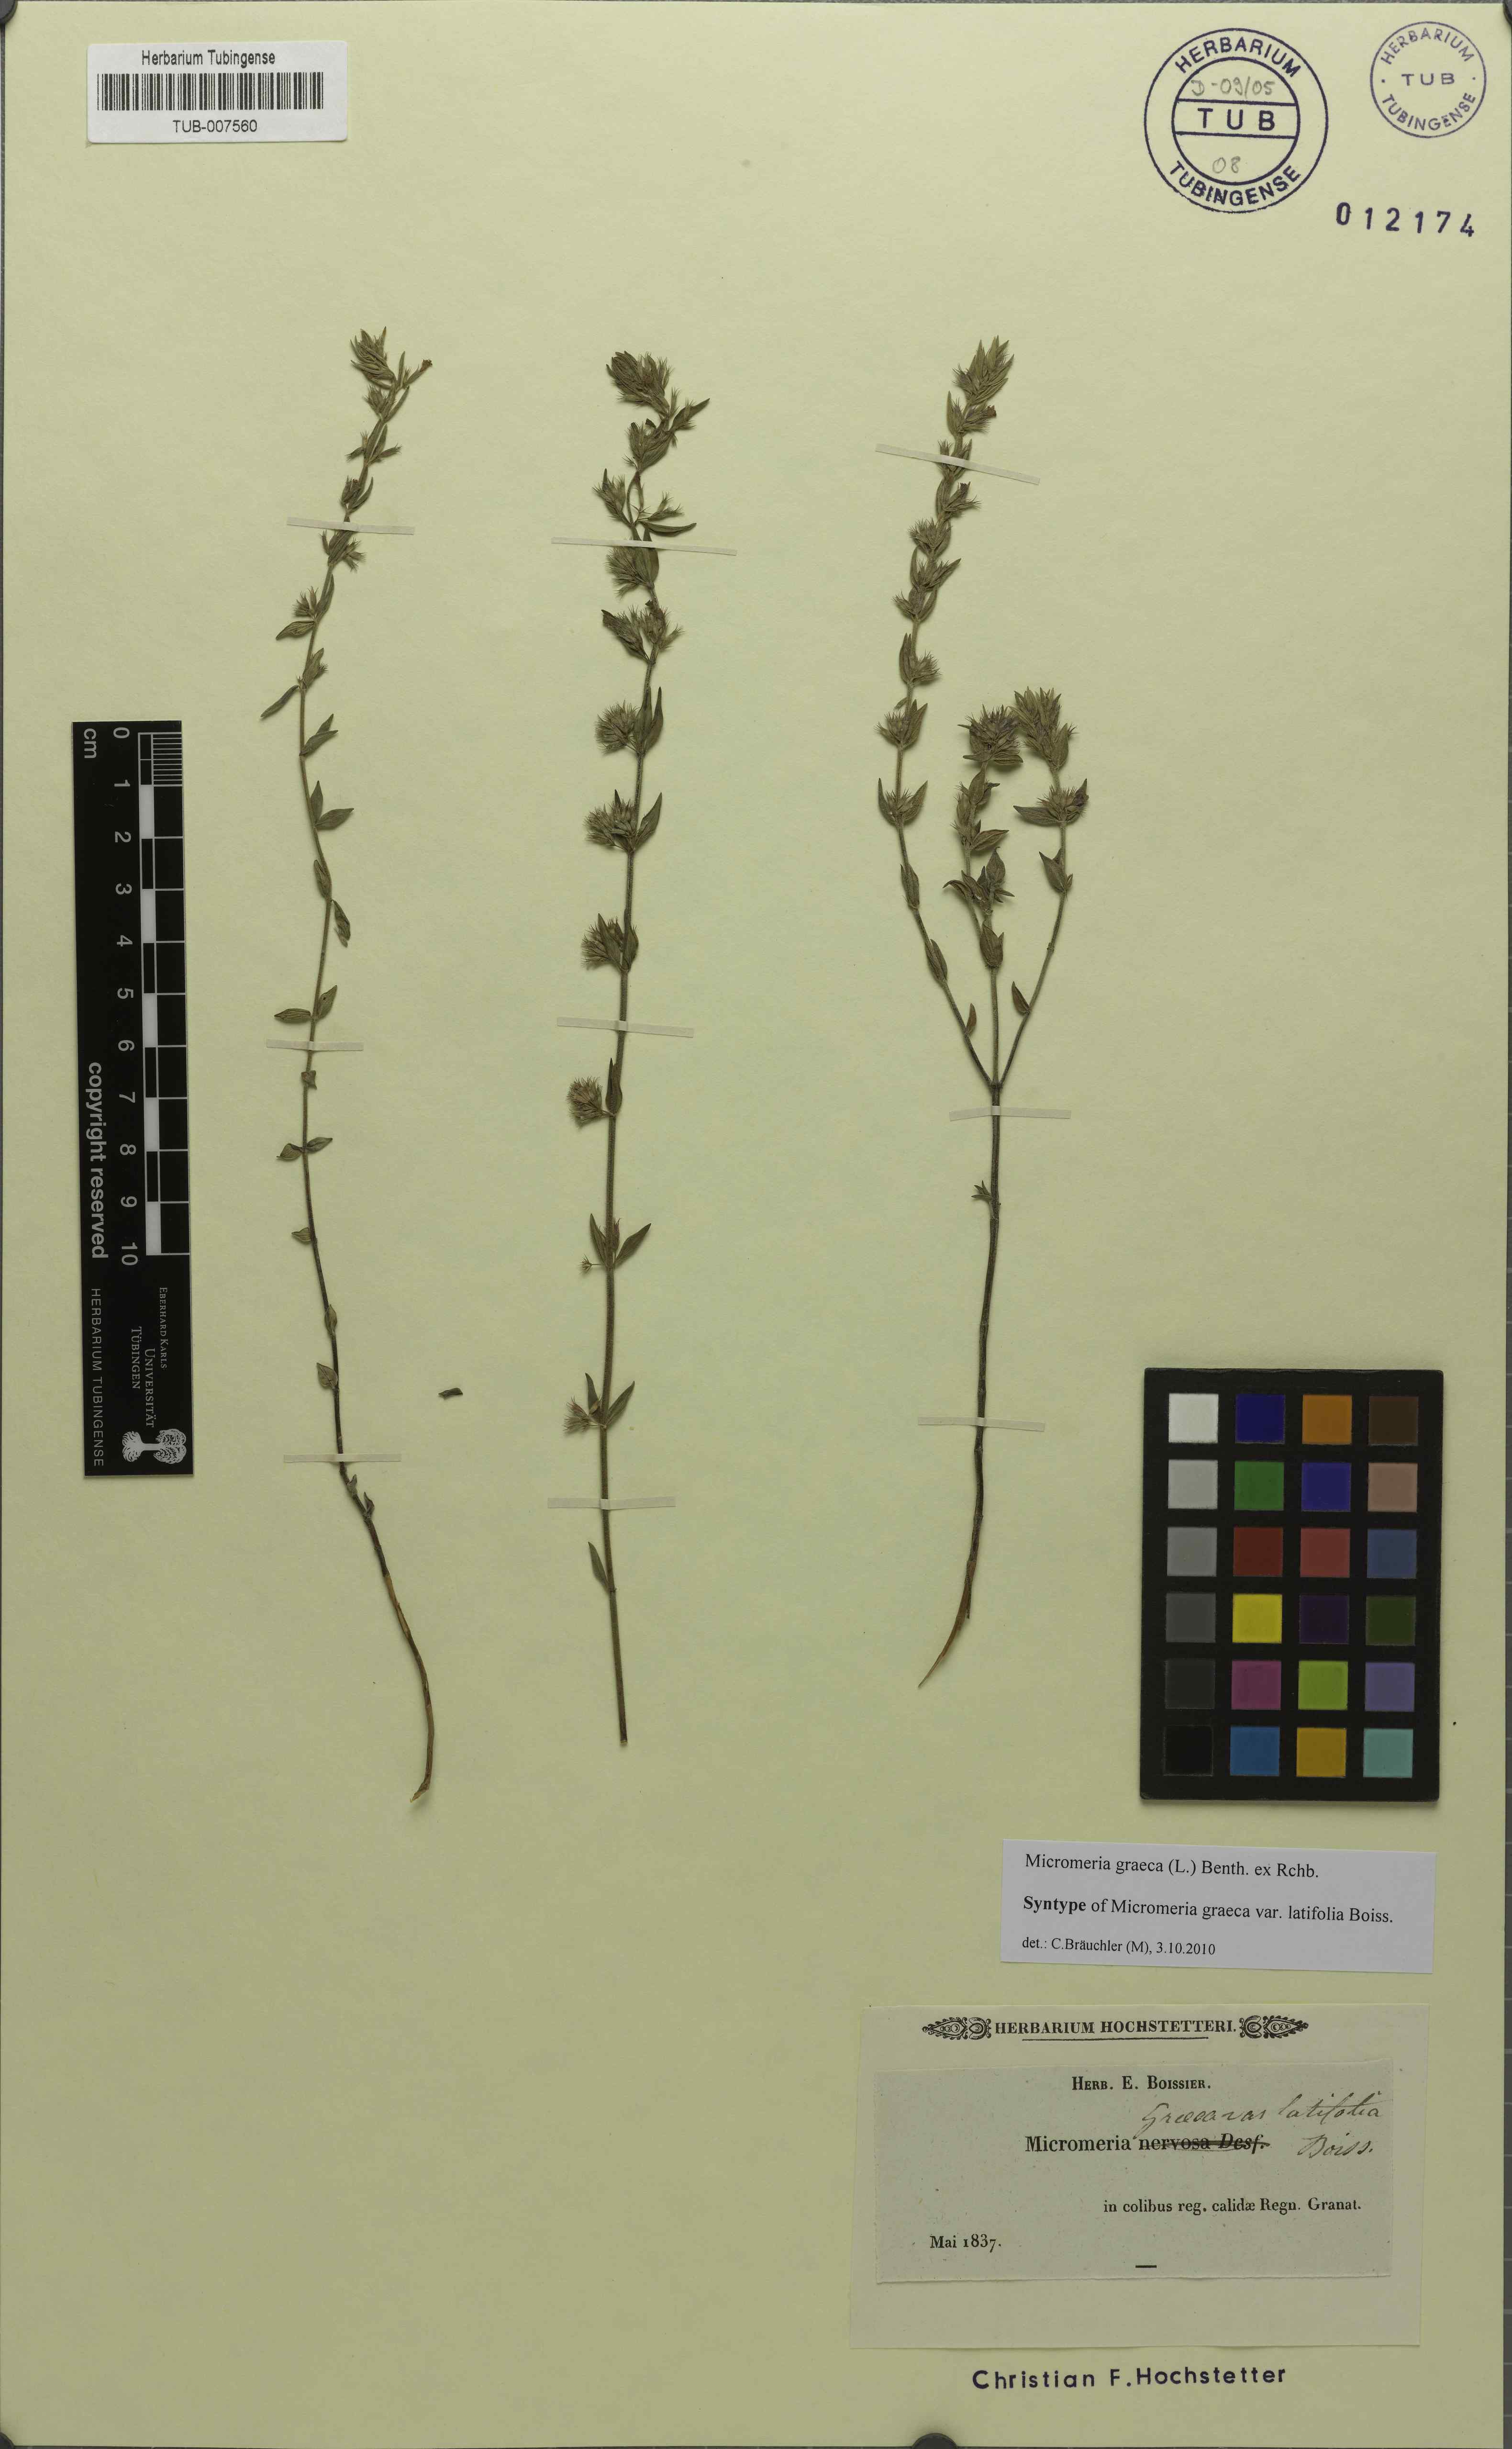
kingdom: Plantae
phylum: Tracheophyta
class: Magnoliopsida
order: Lamiales
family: Lamiaceae
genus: Micromeria
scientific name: Micromeria graeca
